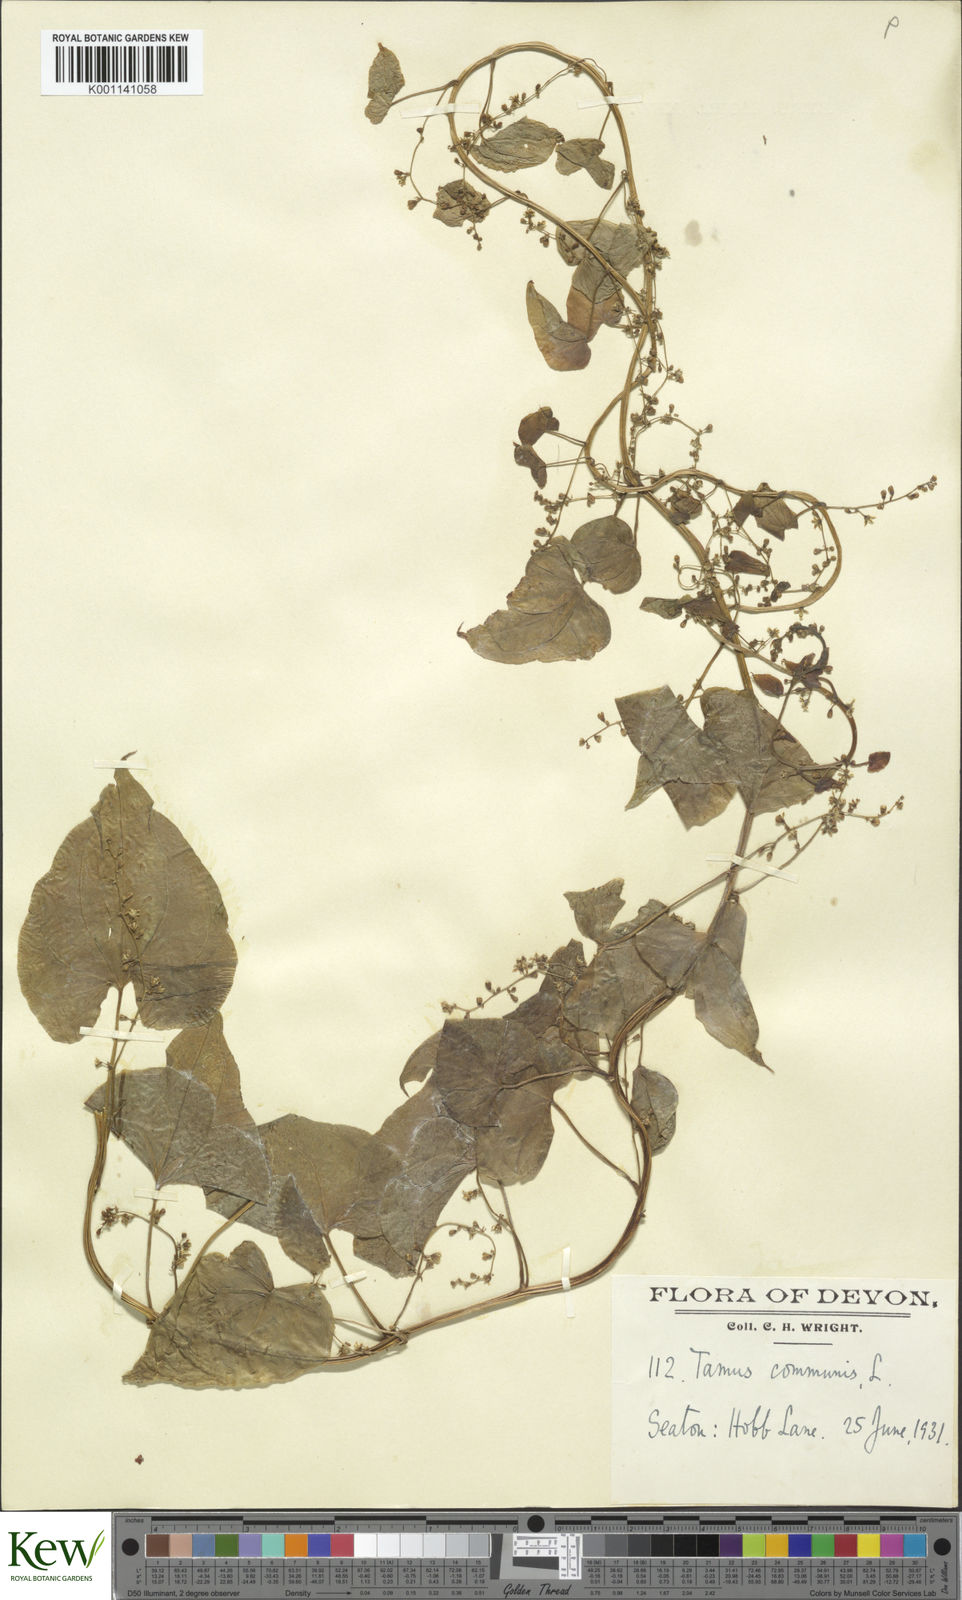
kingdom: Plantae
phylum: Tracheophyta
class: Liliopsida
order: Dioscoreales
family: Dioscoreaceae
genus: Dioscorea
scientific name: Dioscorea communis
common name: Black-bindweed
